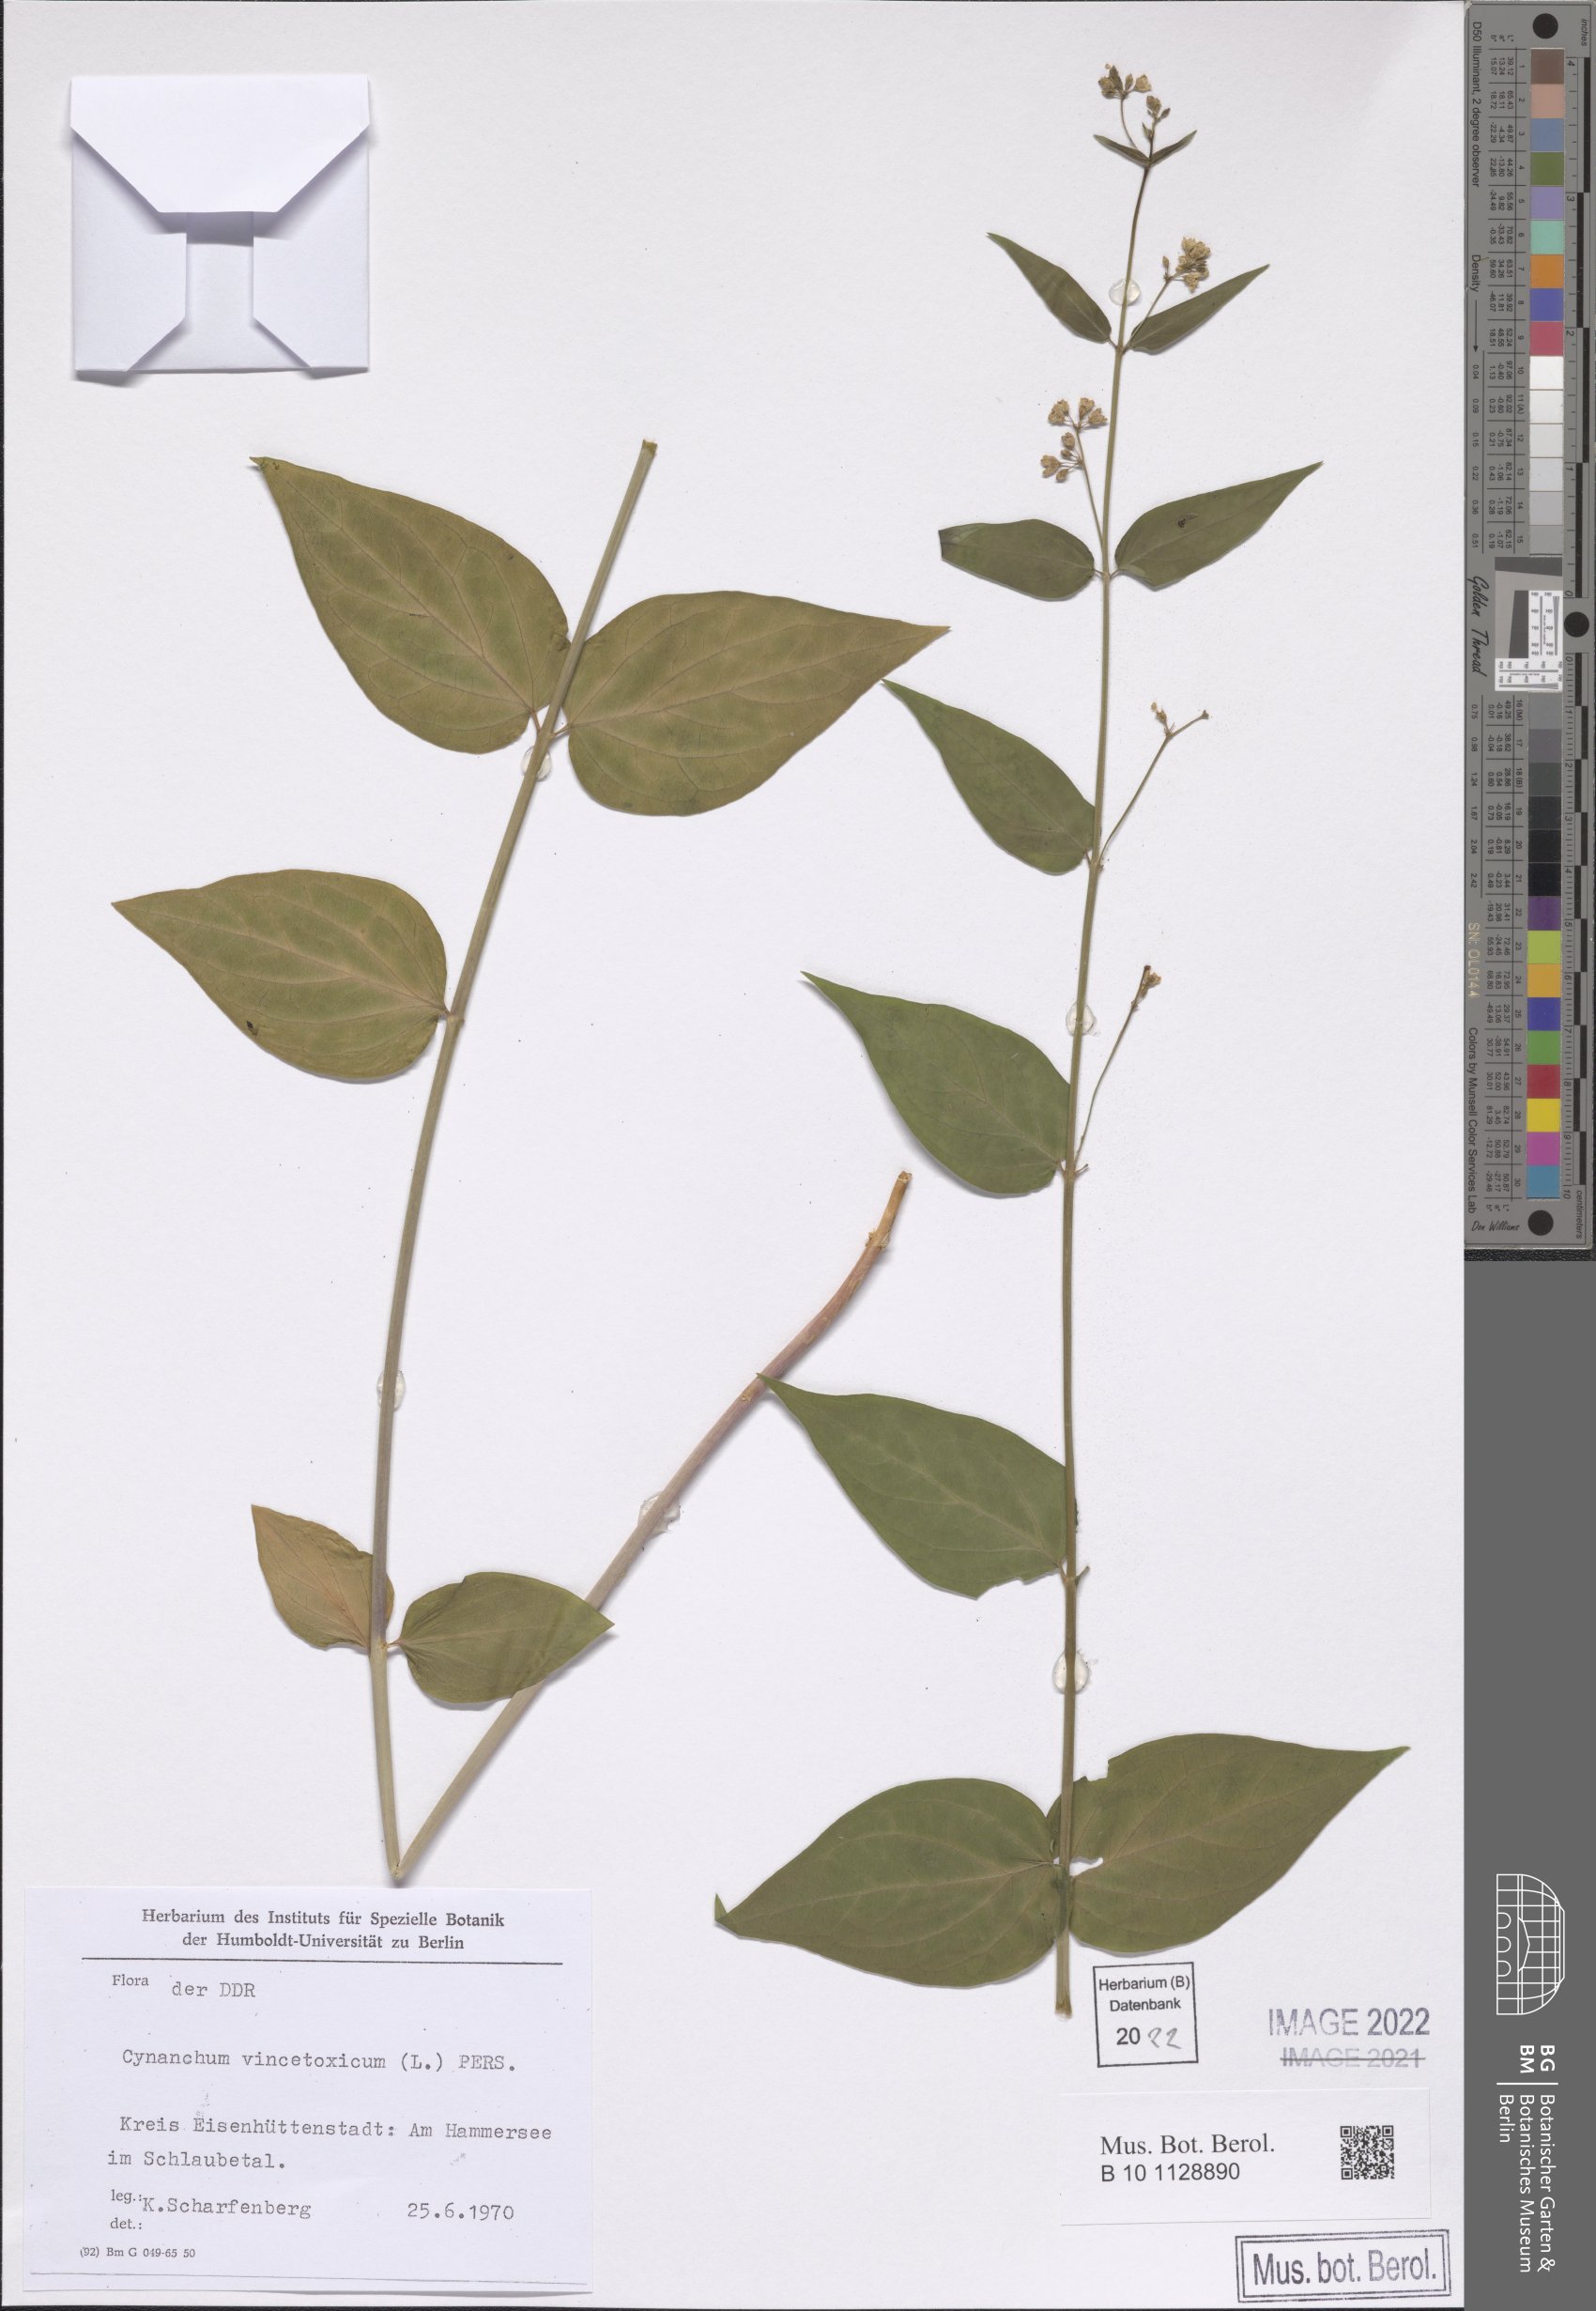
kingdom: Plantae
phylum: Tracheophyta
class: Magnoliopsida
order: Gentianales
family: Apocynaceae
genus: Vincetoxicum
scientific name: Vincetoxicum hirundinaria
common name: White swallowwort
